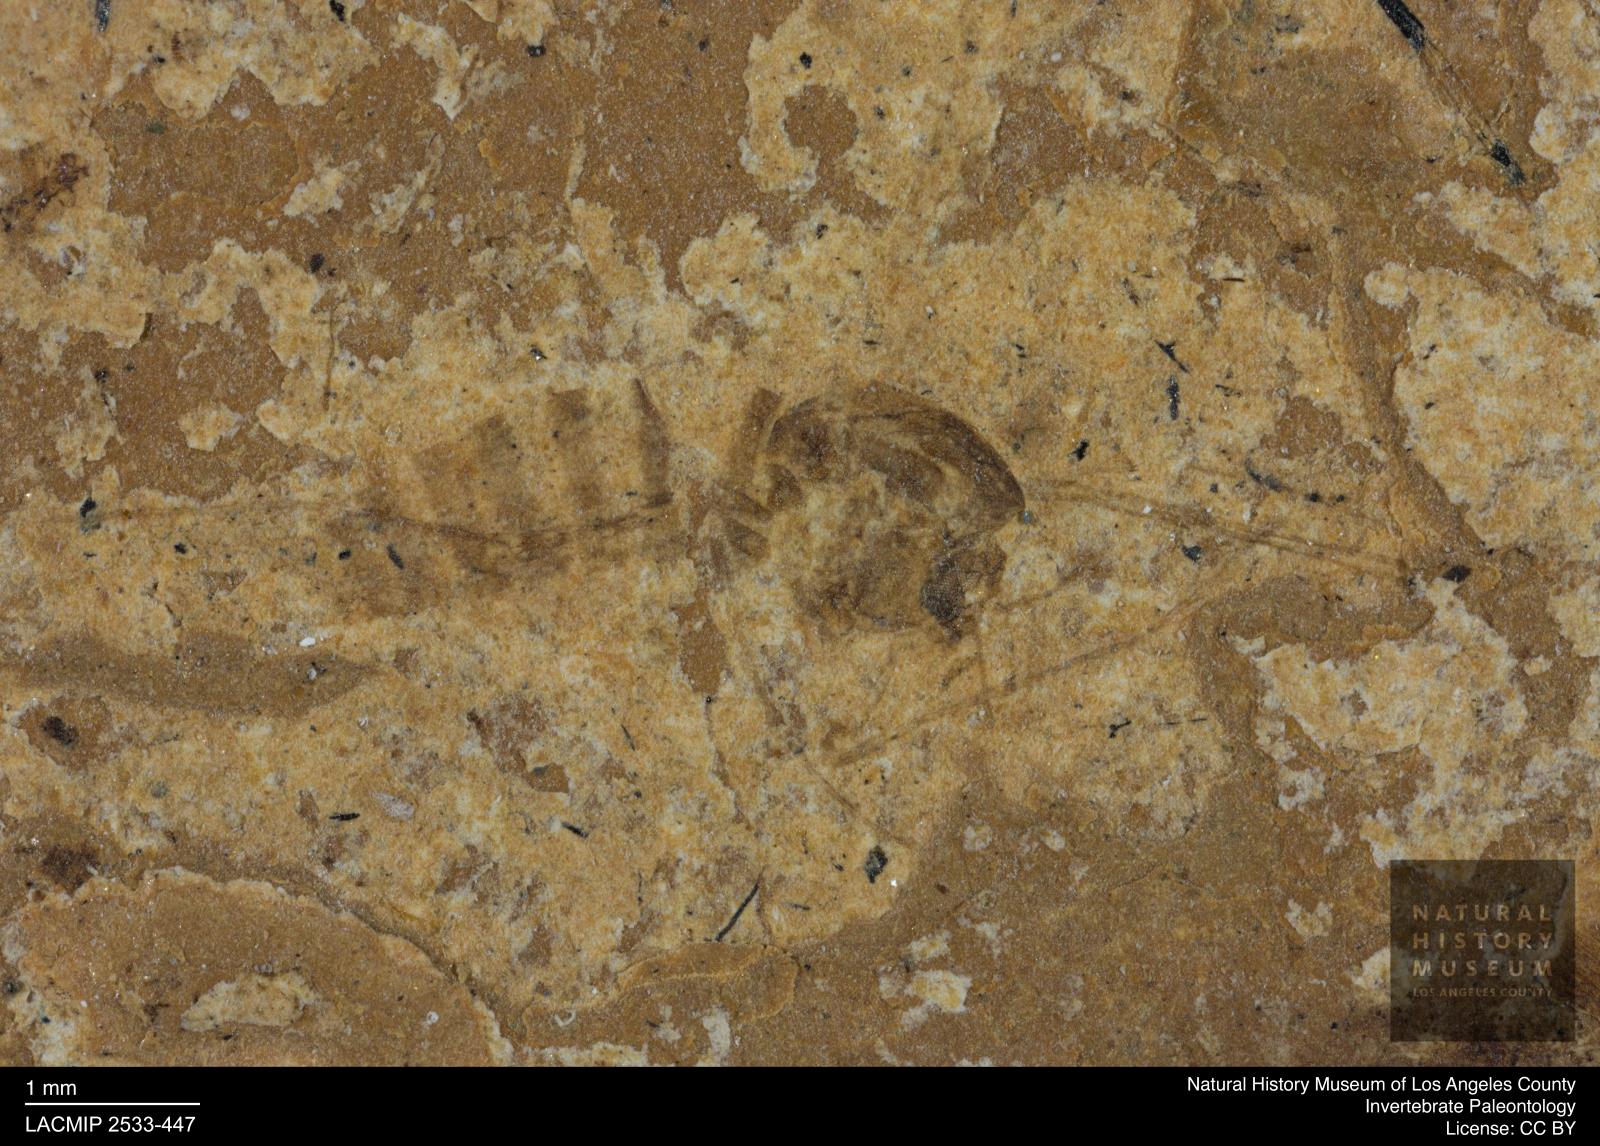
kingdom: Animalia
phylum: Arthropoda
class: Insecta
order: Diptera
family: Chironomidae
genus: Tanypus
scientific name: Tanypus thienemanni
